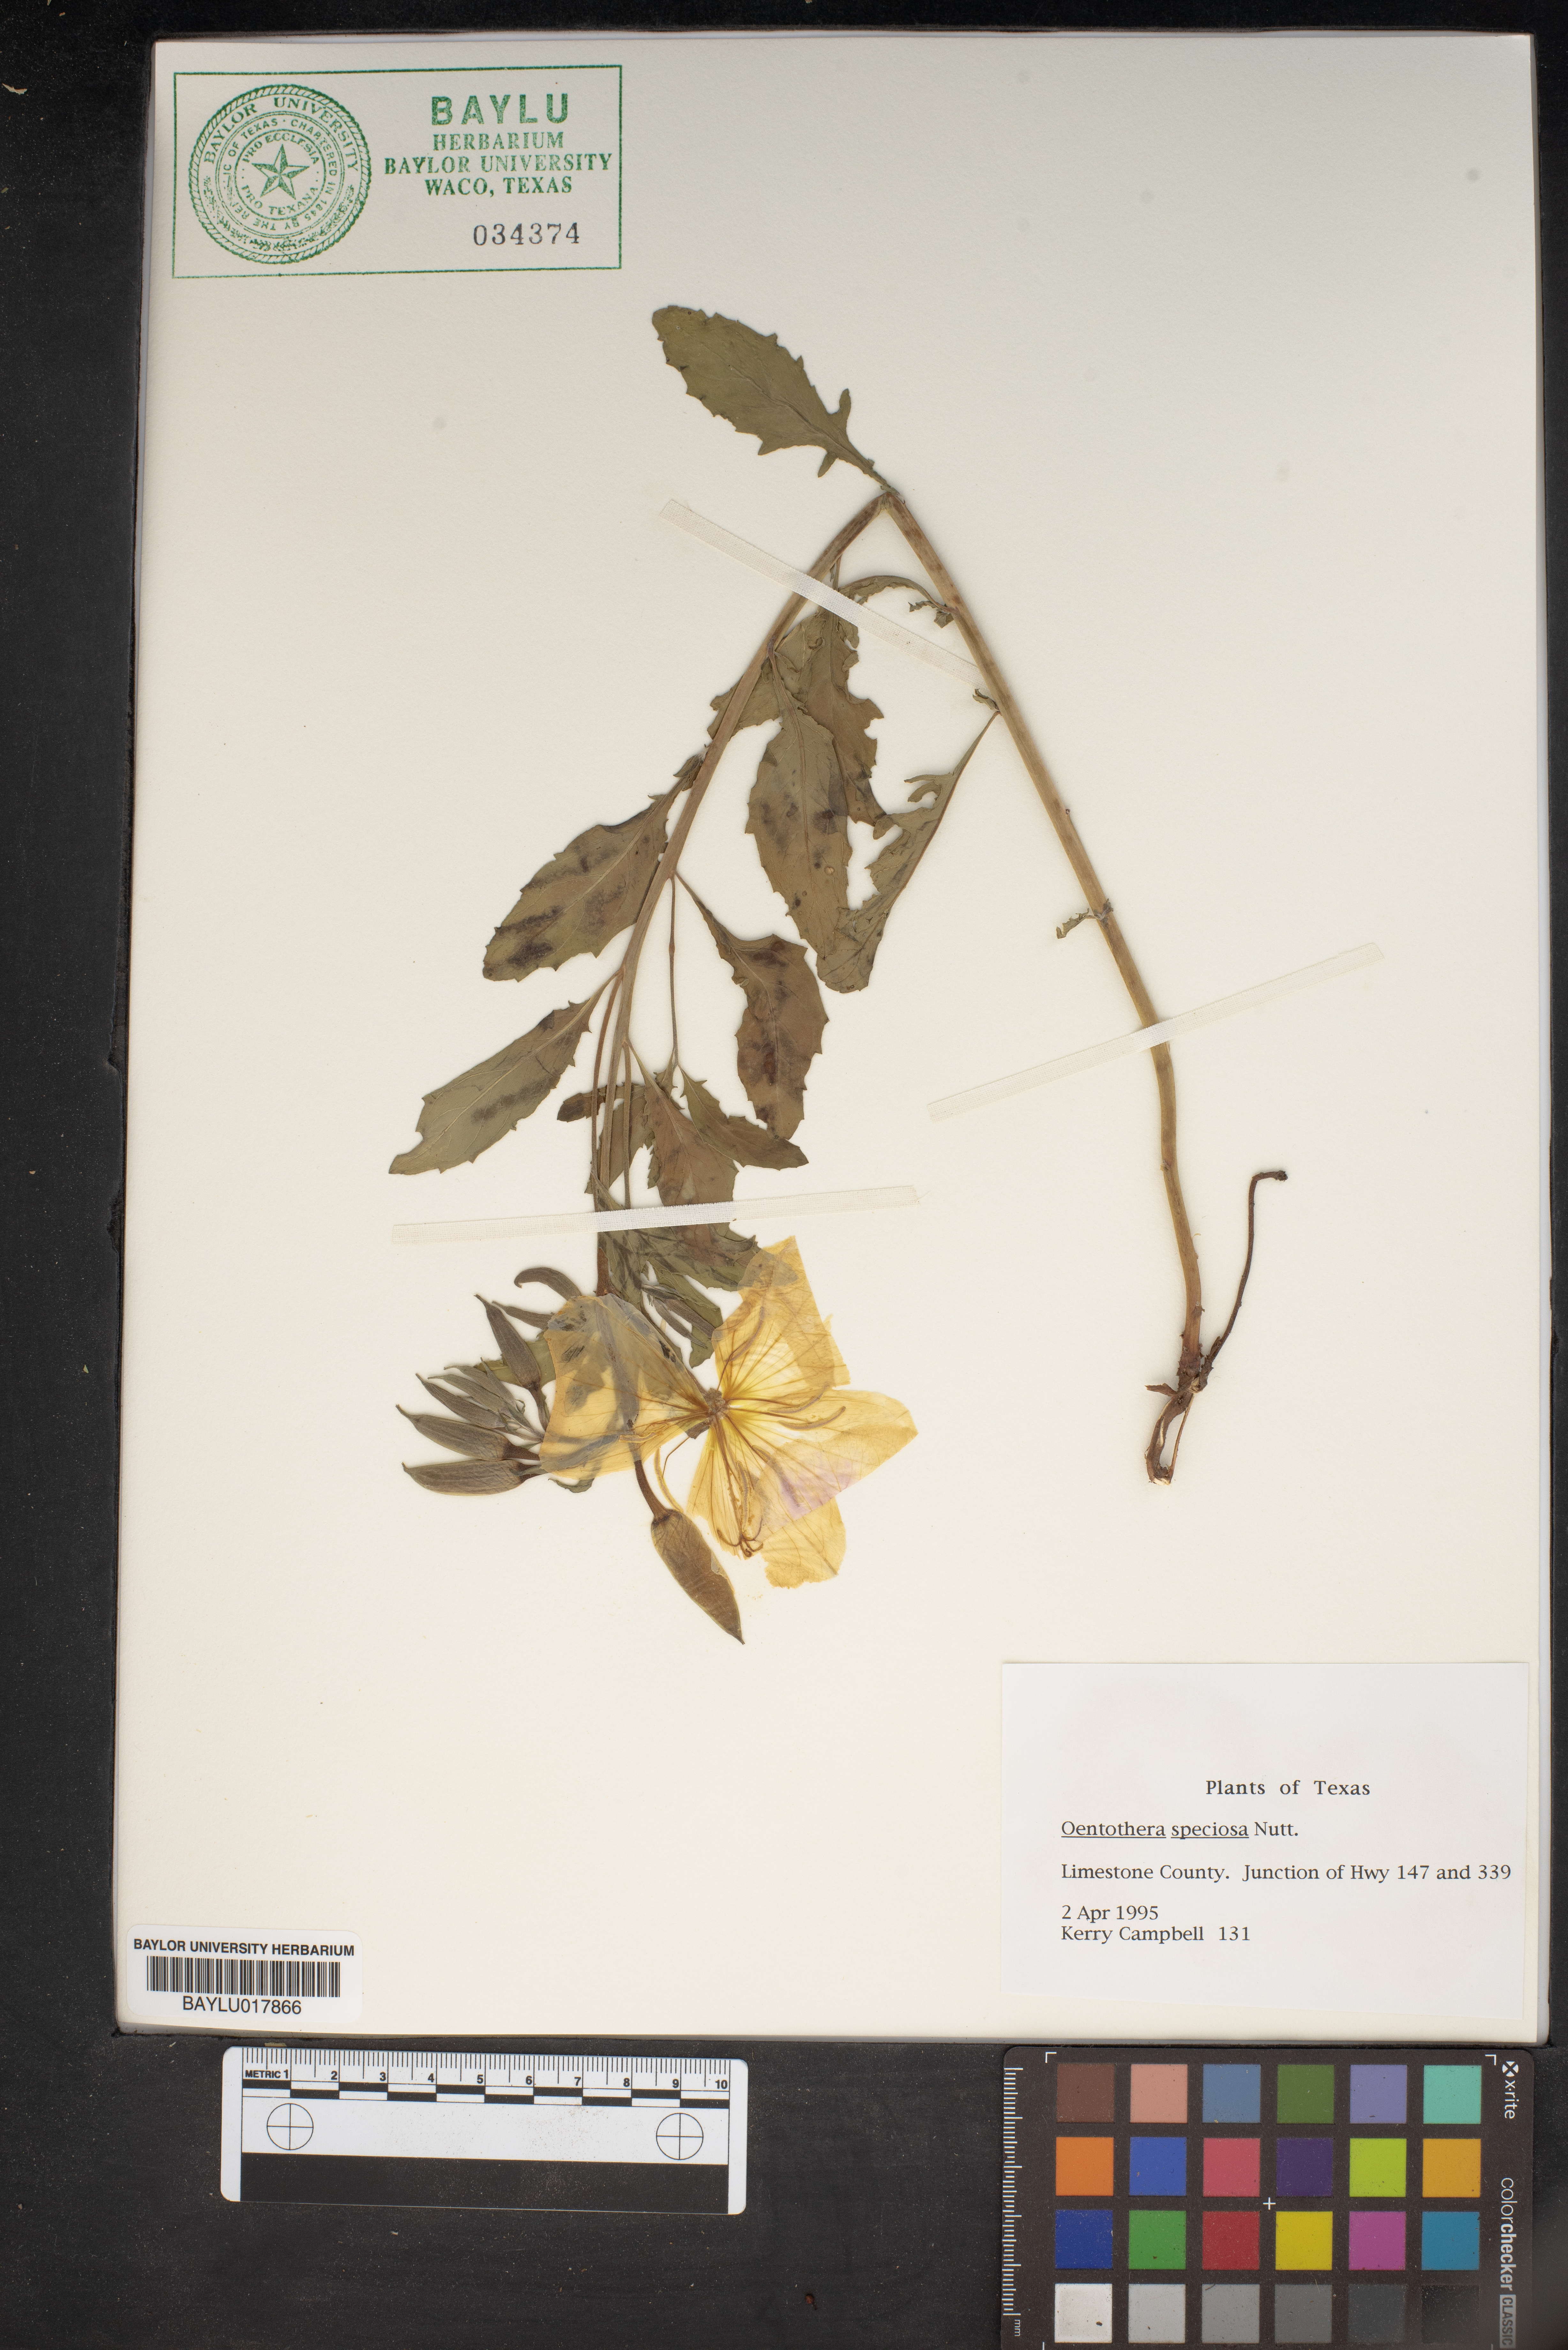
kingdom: Plantae
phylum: Tracheophyta
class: Magnoliopsida
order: Myrtales
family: Onagraceae
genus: Oenothera
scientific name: Oenothera speciosa
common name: White evening-primrose
